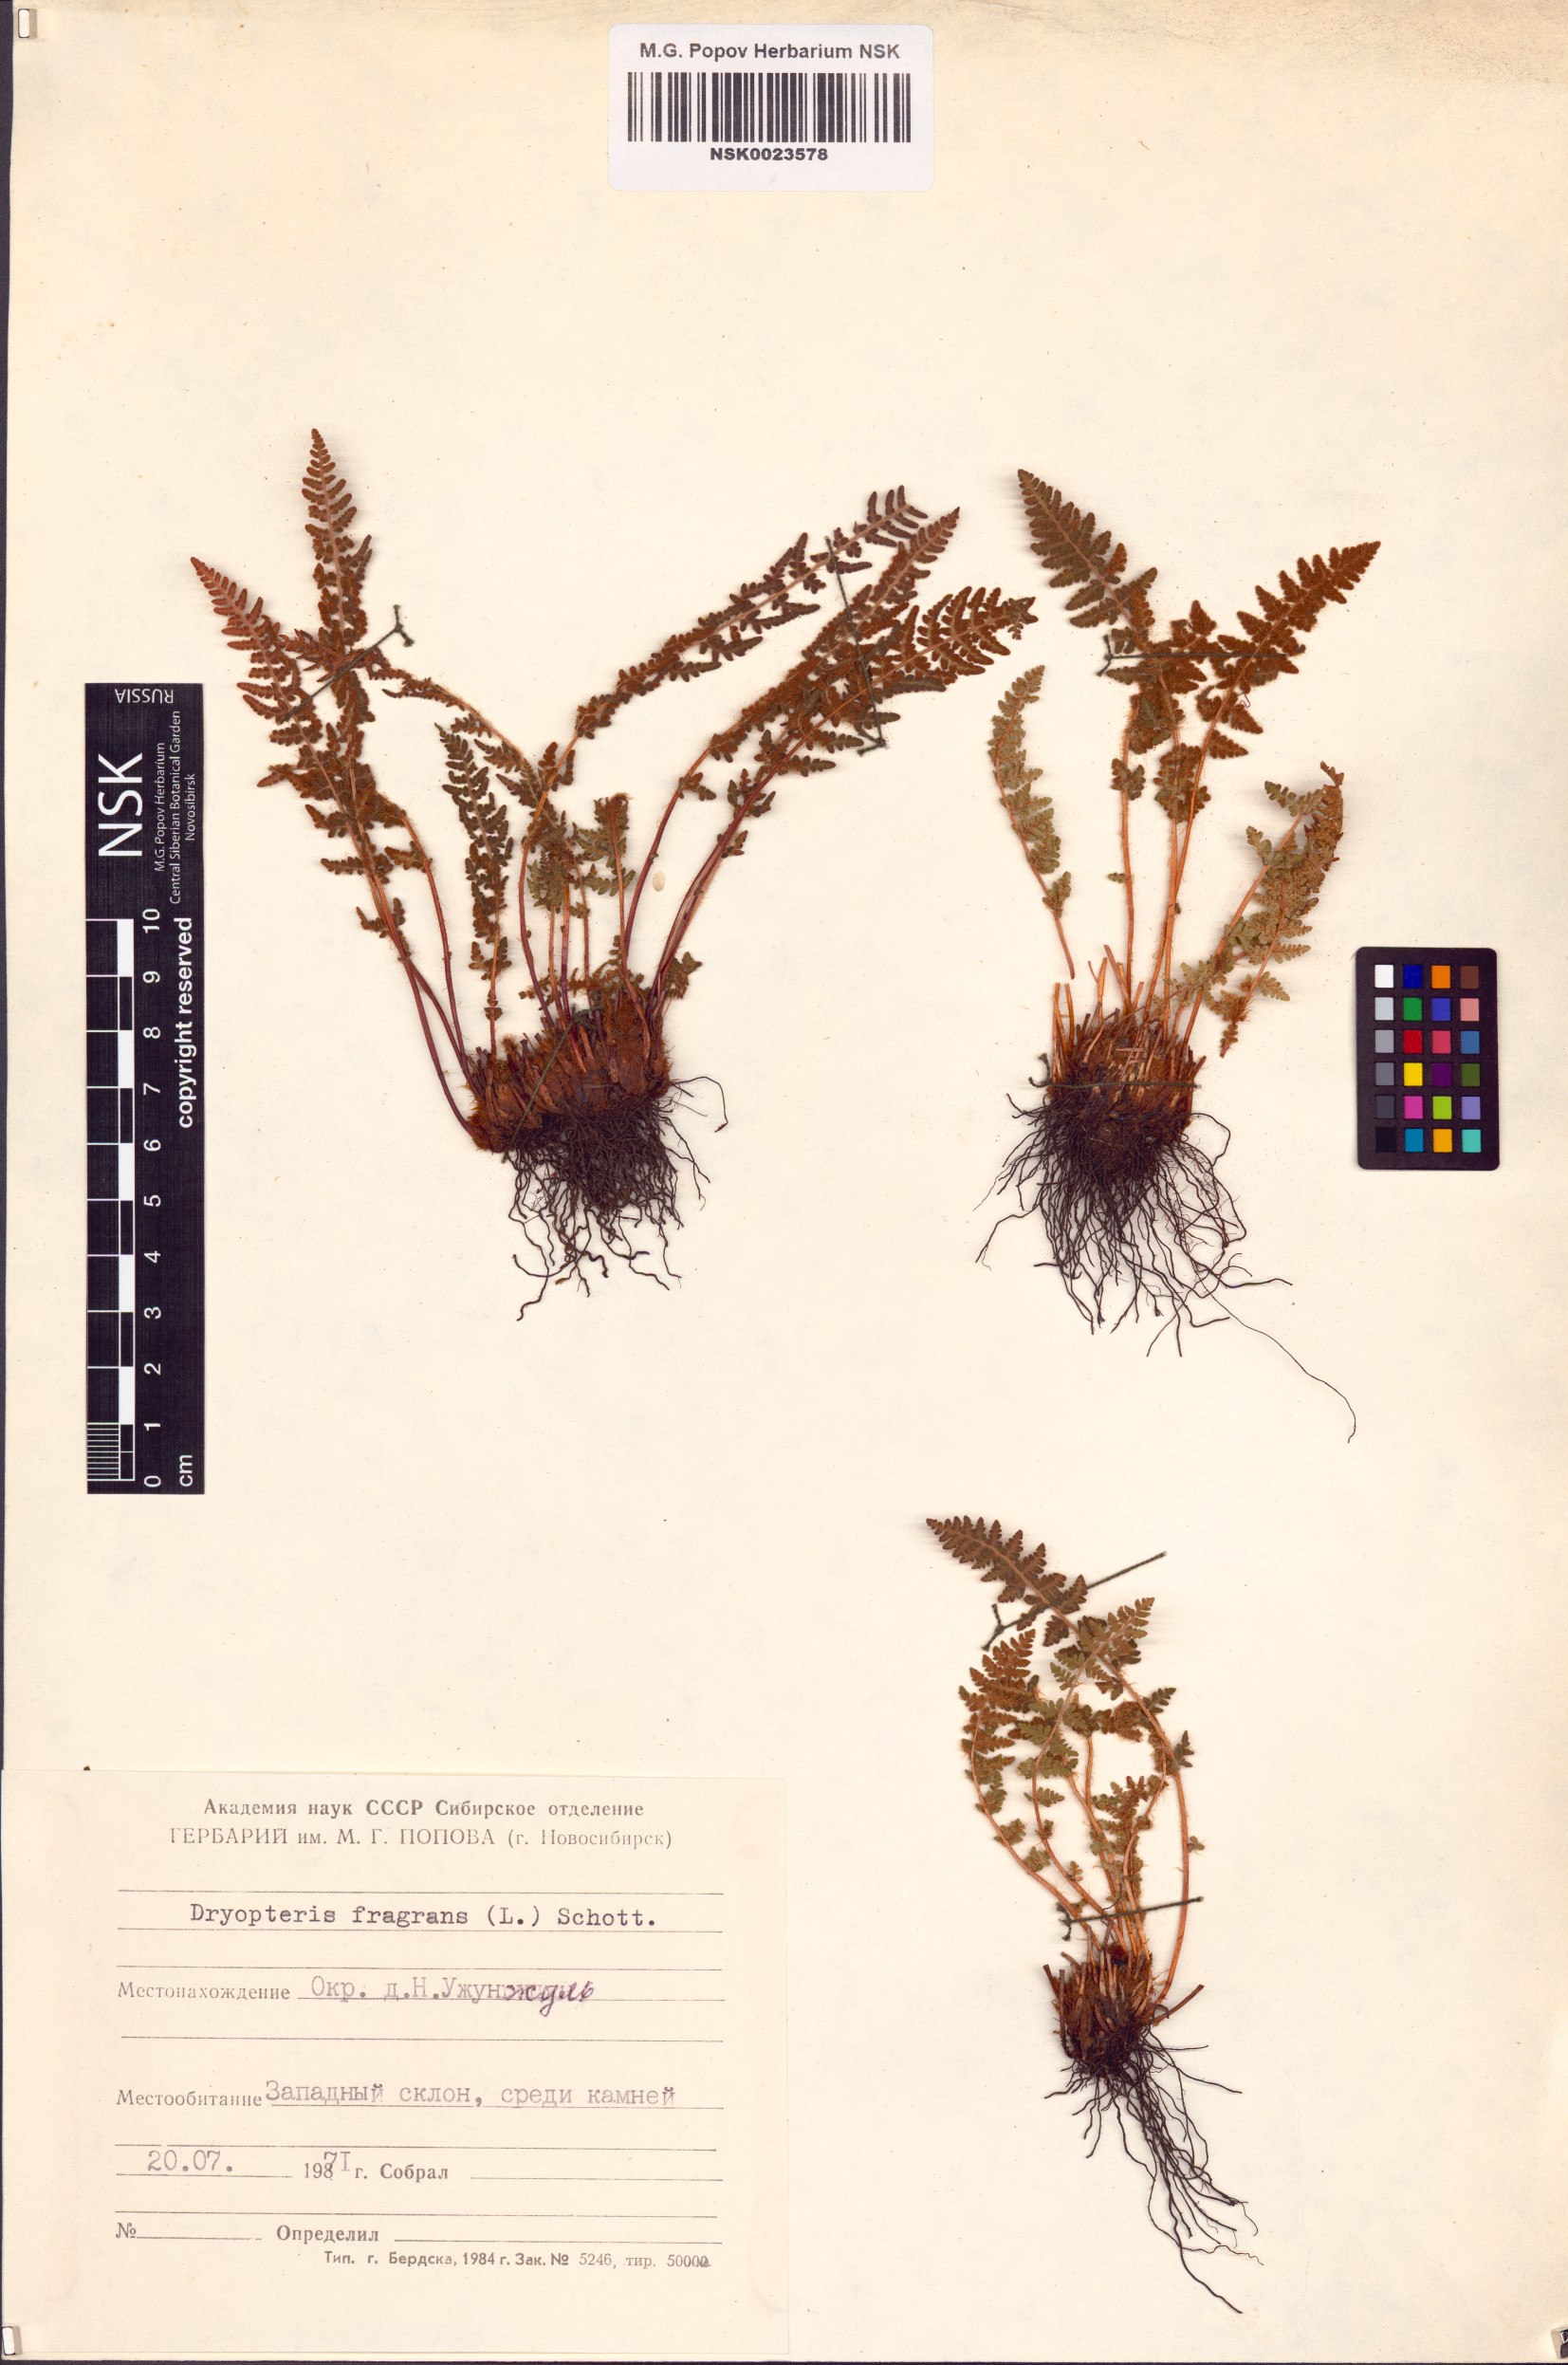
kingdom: Plantae
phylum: Tracheophyta
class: Polypodiopsida
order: Polypodiales
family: Dryopteridaceae
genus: Dryopteris
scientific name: Dryopteris fragrans
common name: Fragrant wood fern
